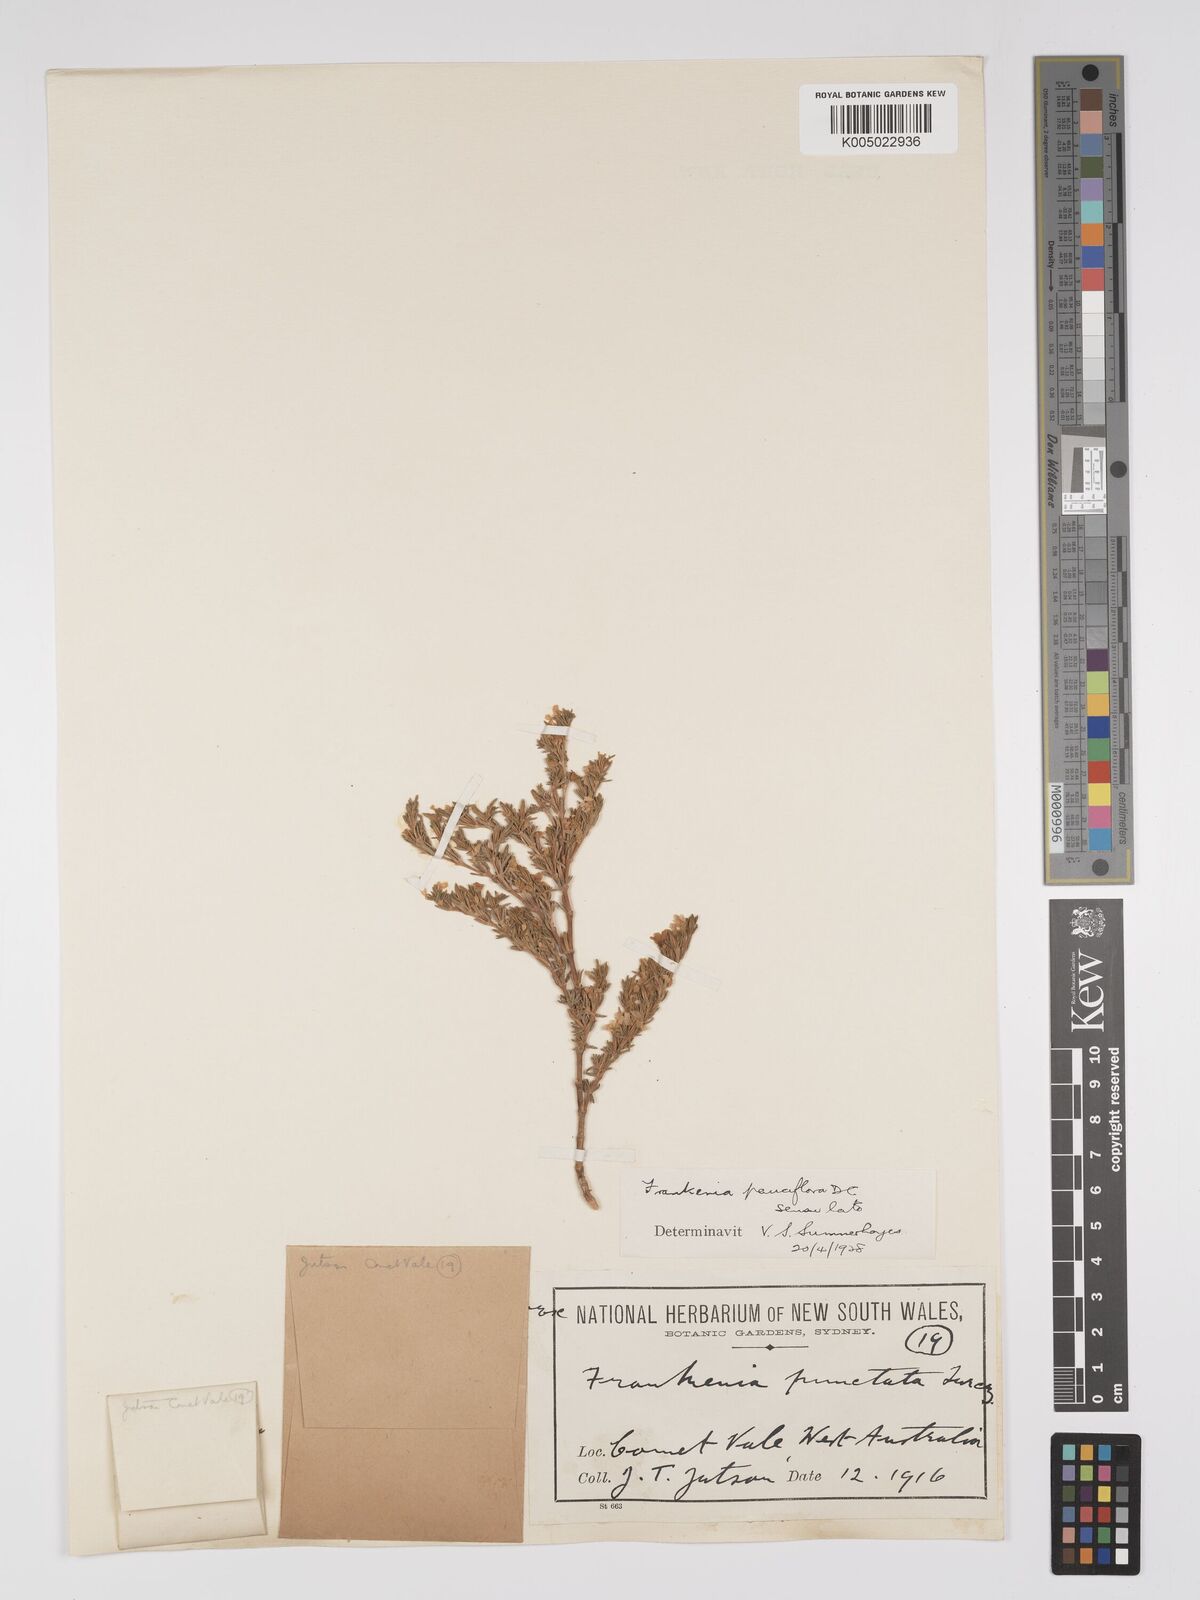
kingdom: Plantae
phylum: Tracheophyta
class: Magnoliopsida
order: Caryophyllales
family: Frankeniaceae
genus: Frankenia
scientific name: Frankenia pauciflora
